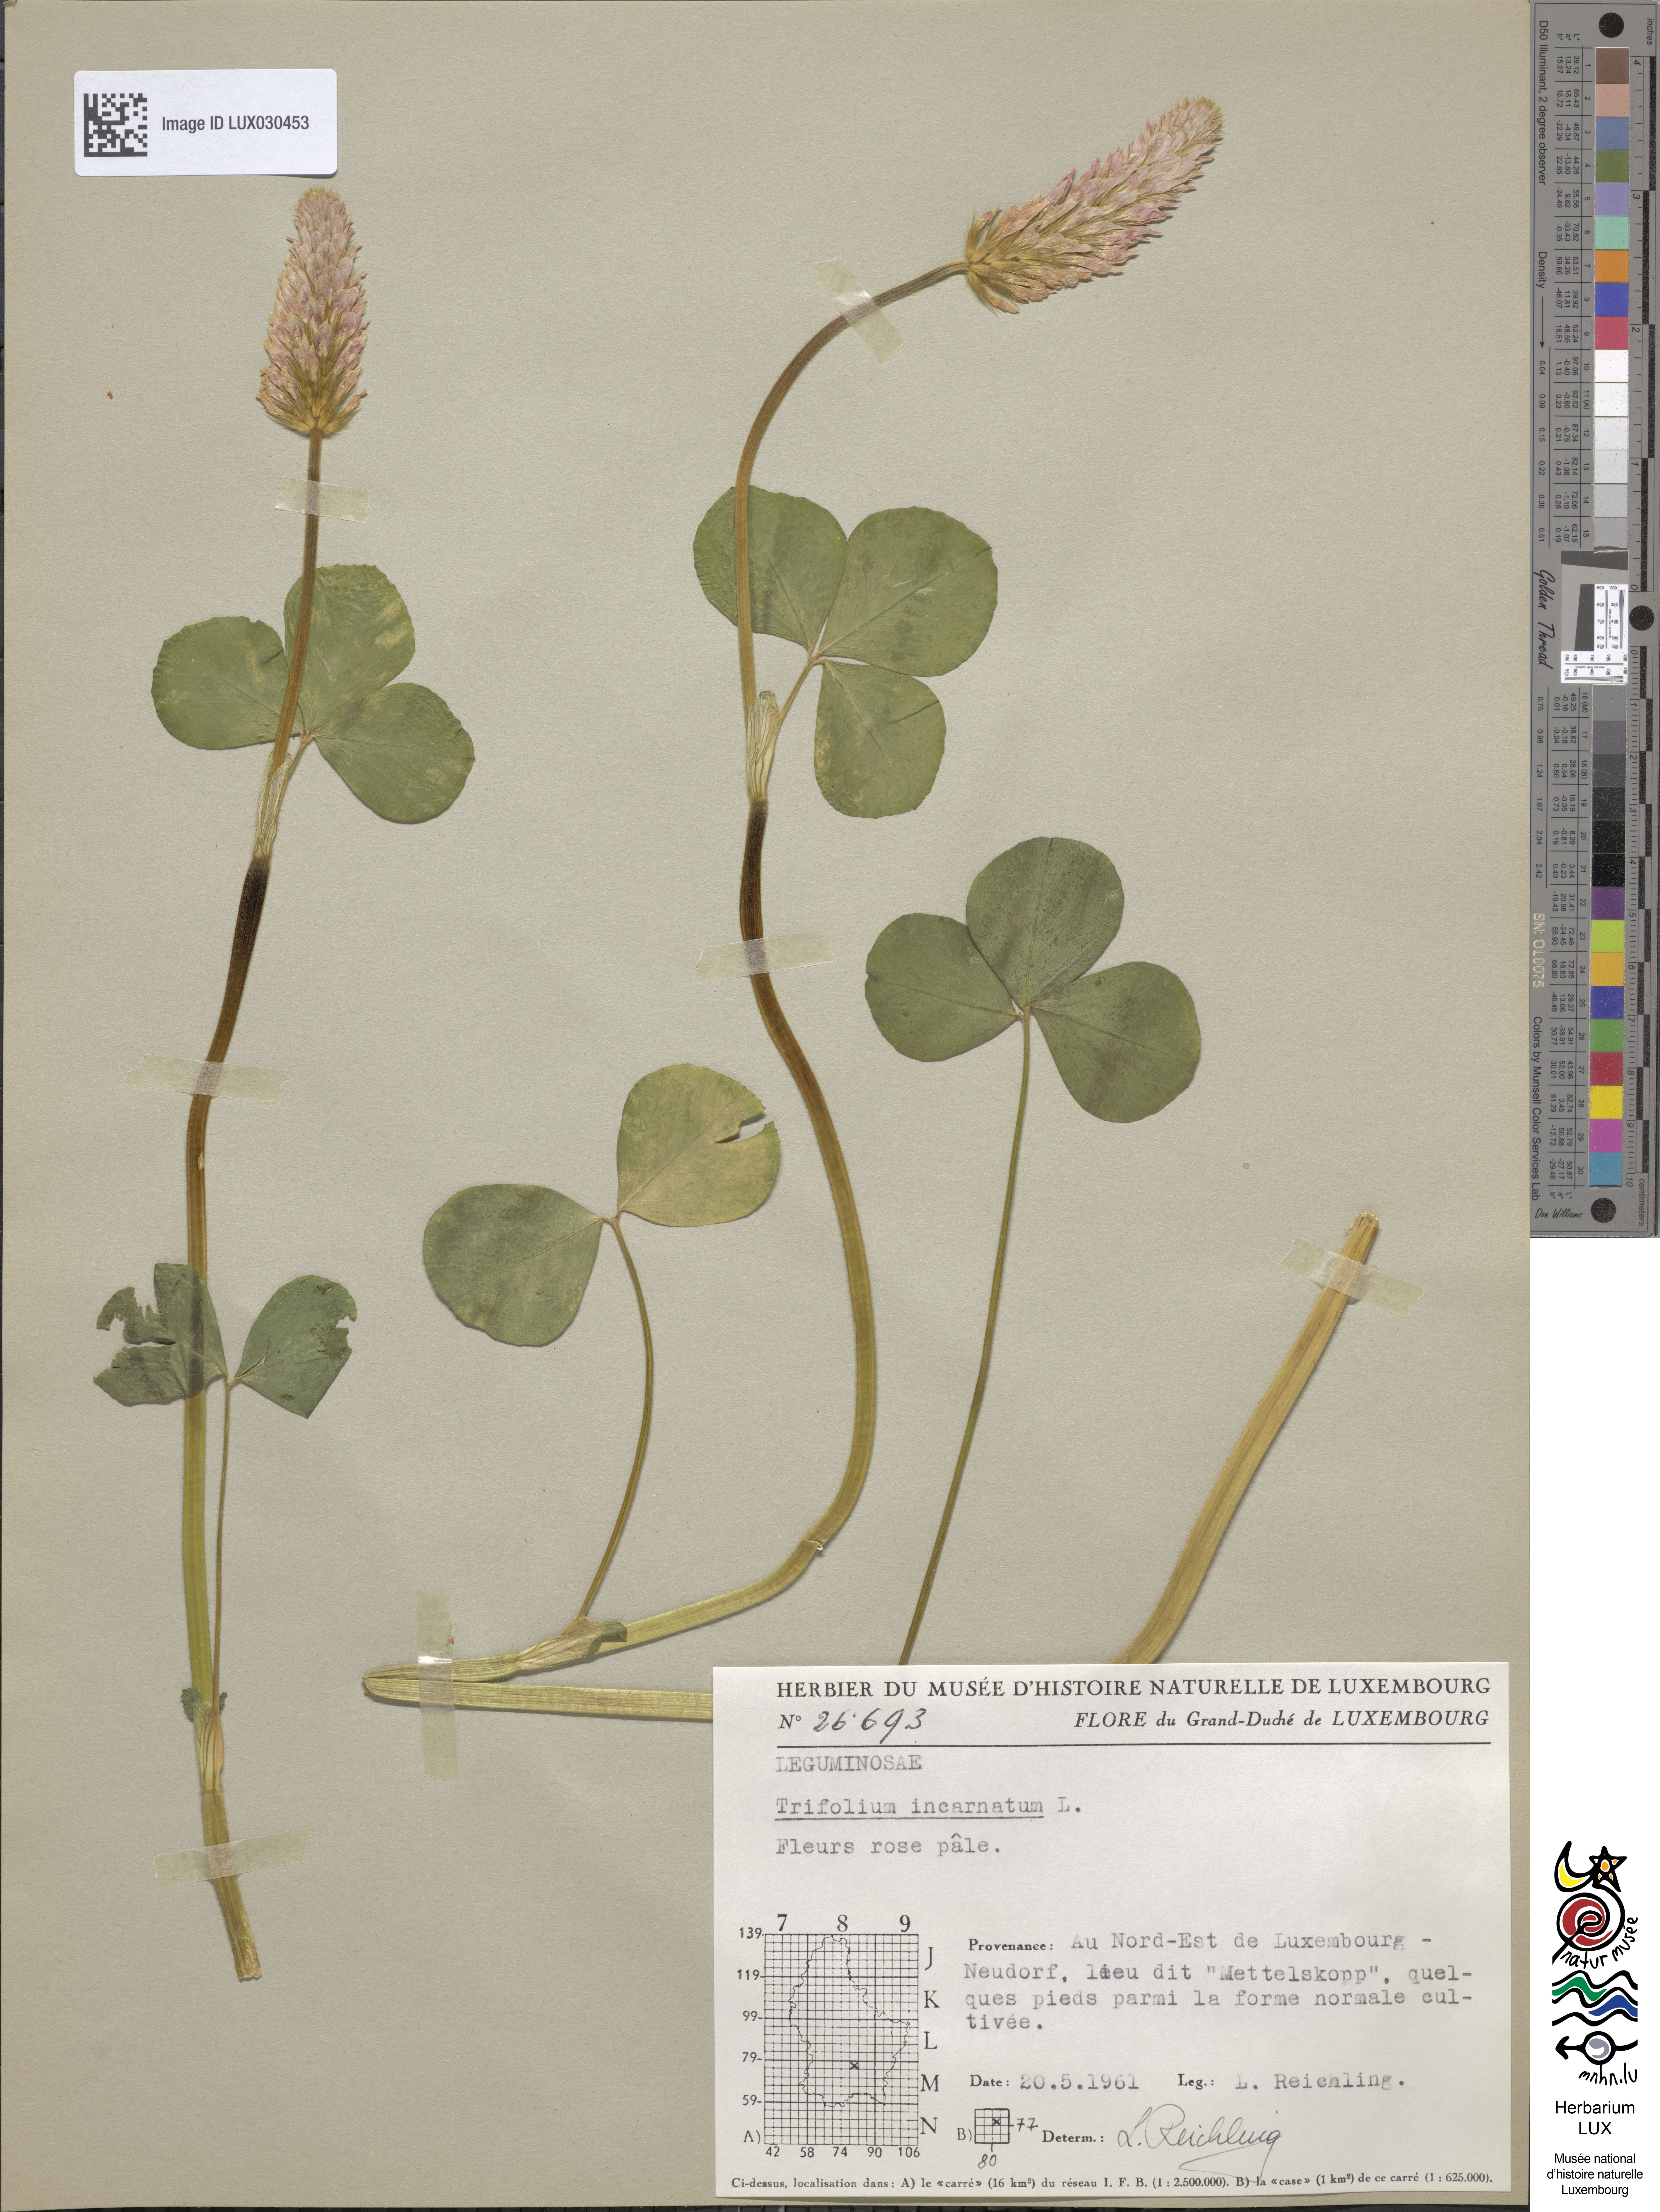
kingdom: Plantae
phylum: Tracheophyta
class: Magnoliopsida
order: Fabales
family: Fabaceae
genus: Trifolium
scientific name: Trifolium incarnatum
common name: Crimson clover
